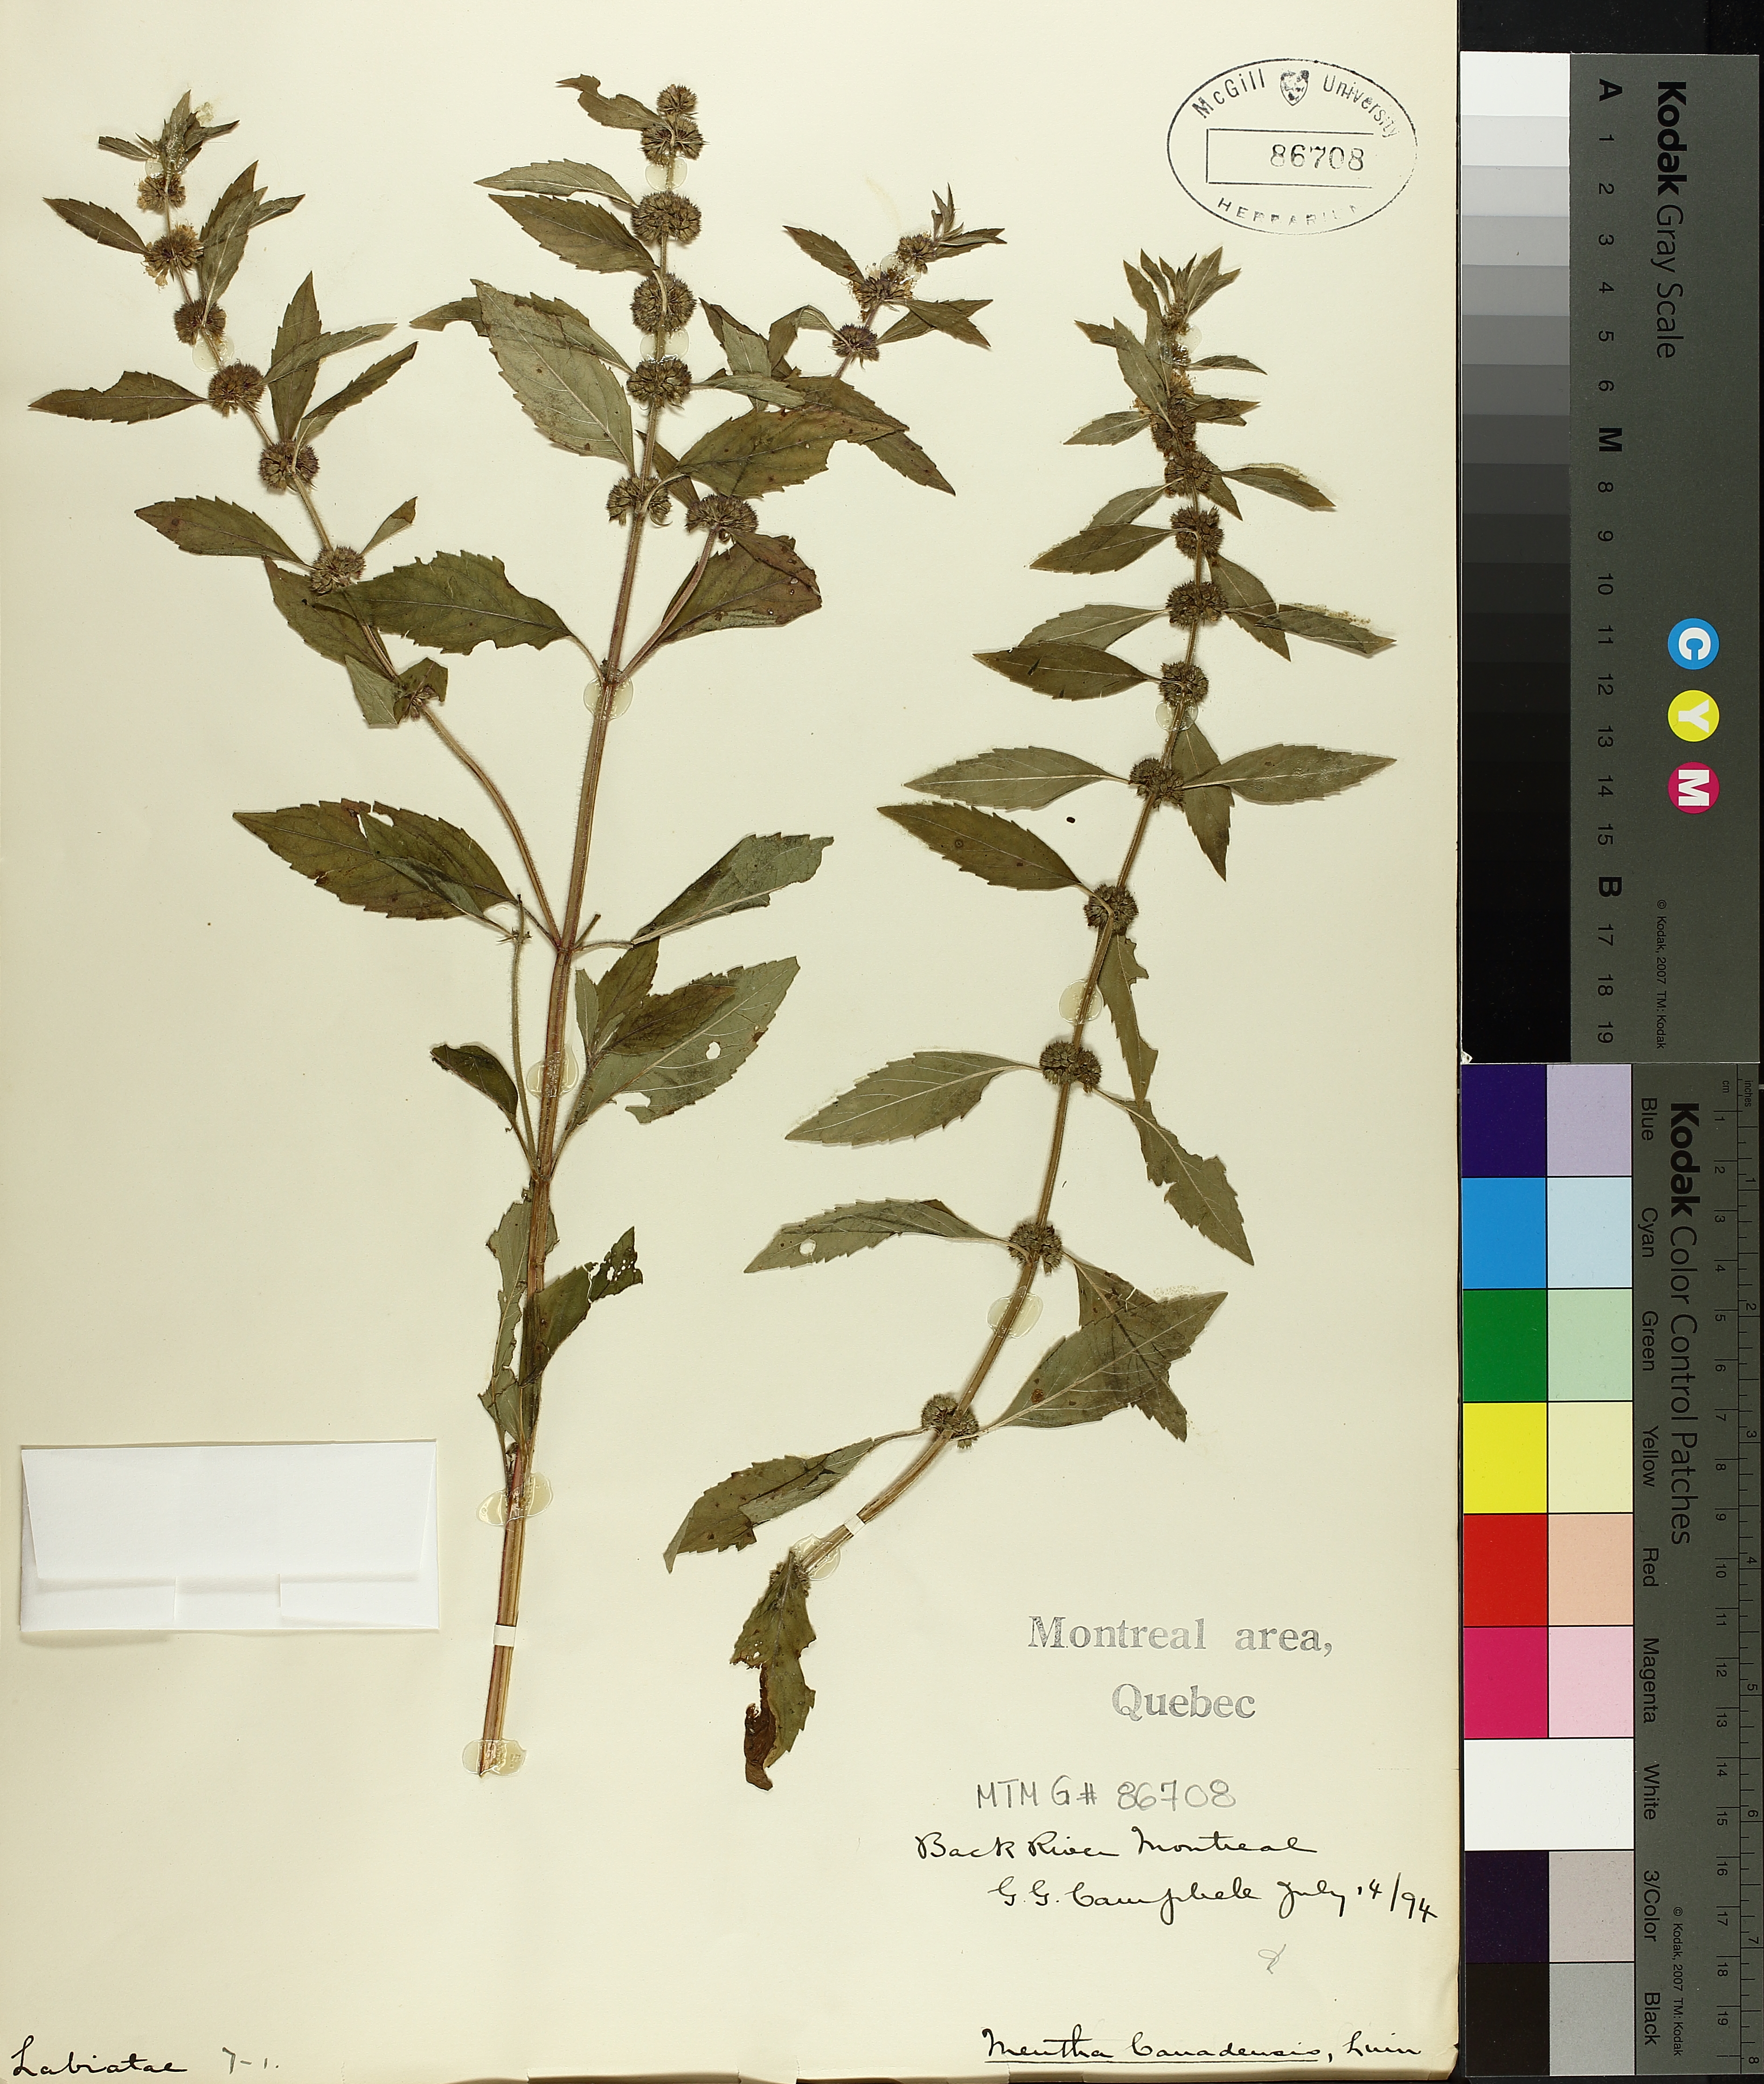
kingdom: Plantae
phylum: Tracheophyta
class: Magnoliopsida
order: Lamiales
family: Lamiaceae
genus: Mentha
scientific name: Mentha canadensis
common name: American corn mint
